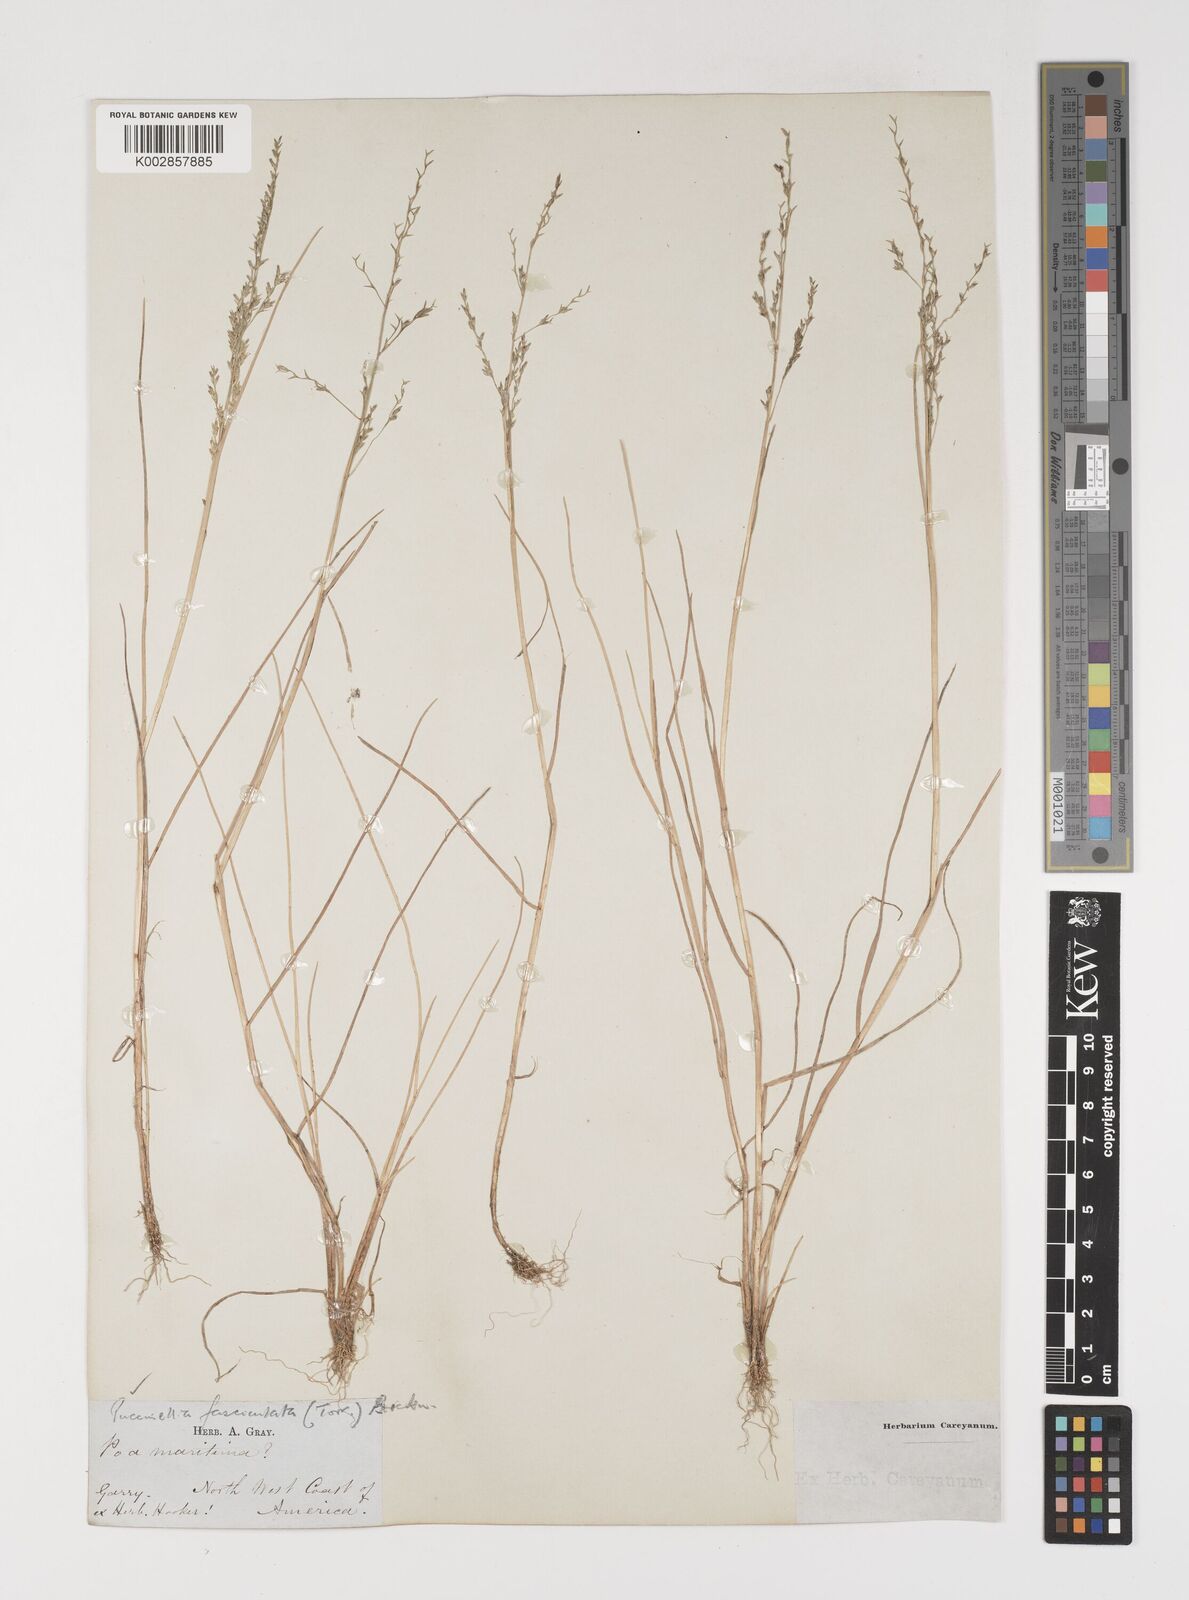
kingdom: Plantae
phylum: Tracheophyta
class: Liliopsida
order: Poales
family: Poaceae
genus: Puccinellia
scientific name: Puccinellia
